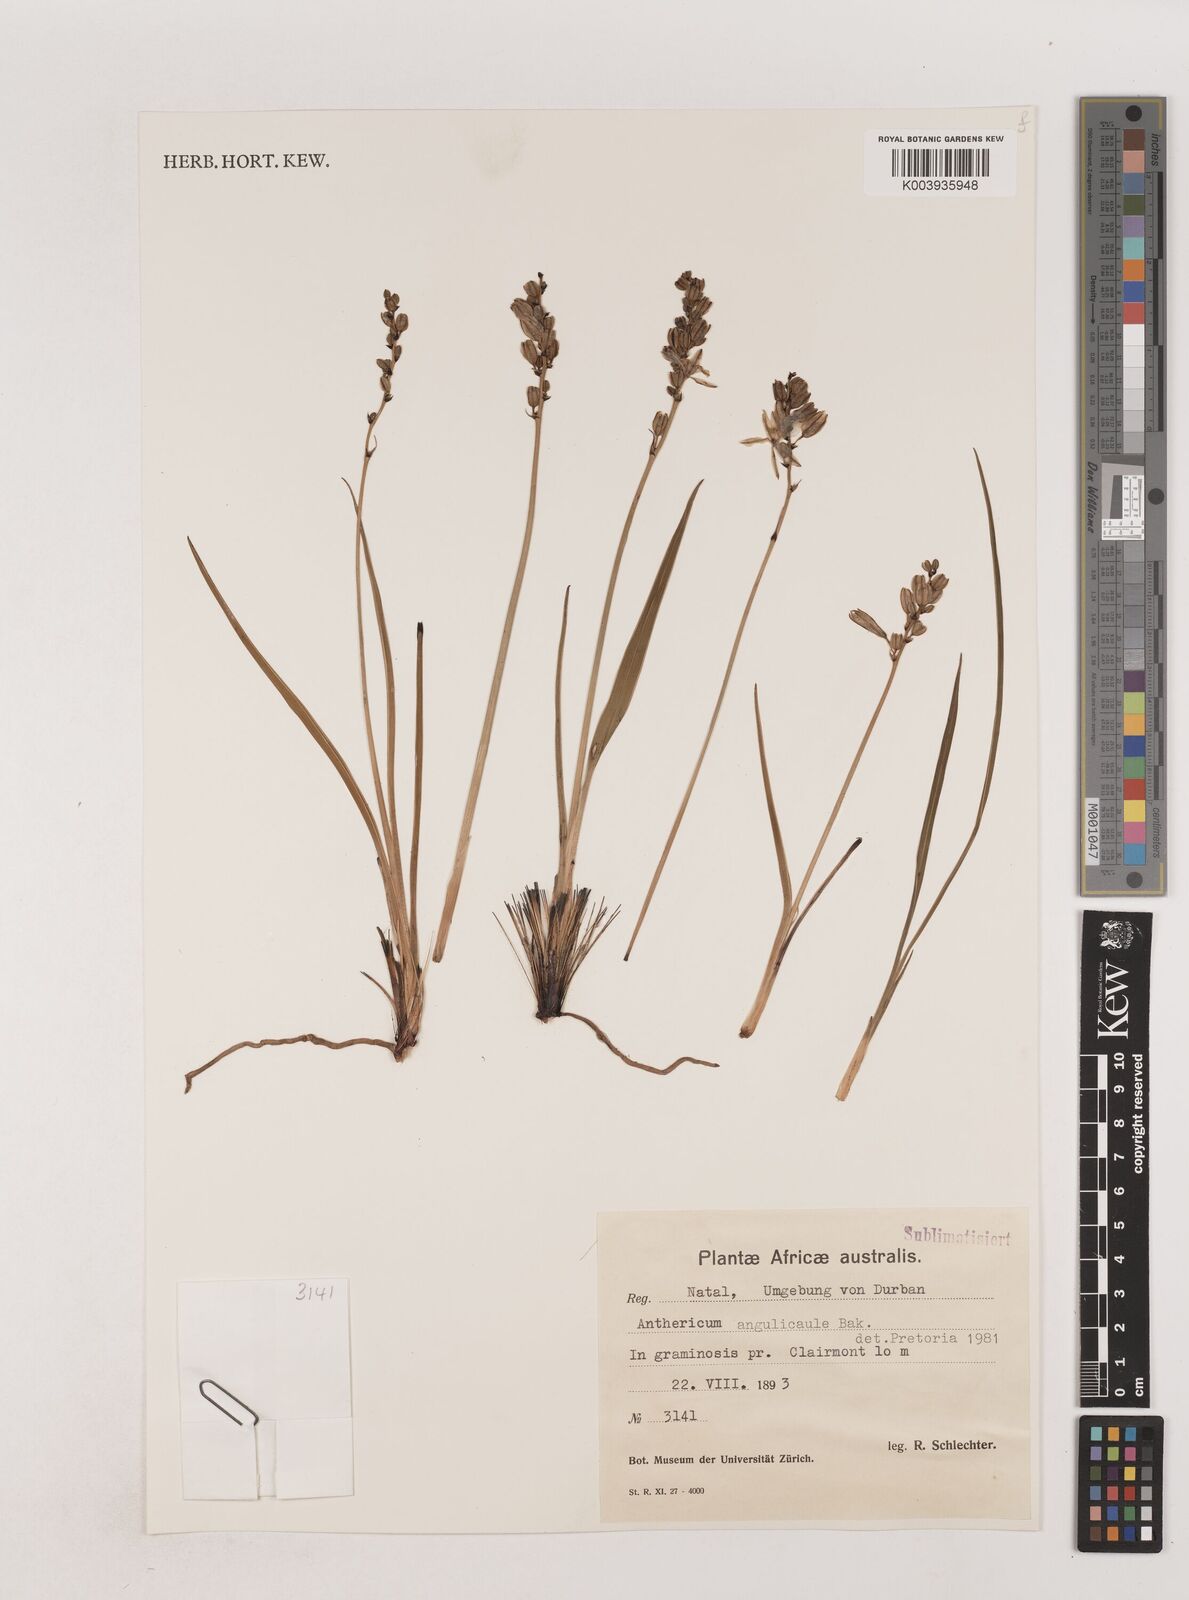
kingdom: Plantae
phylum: Tracheophyta
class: Liliopsida
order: Asparagales
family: Asparagaceae
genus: Chlorophytum
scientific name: Chlorophytum angulicaule
